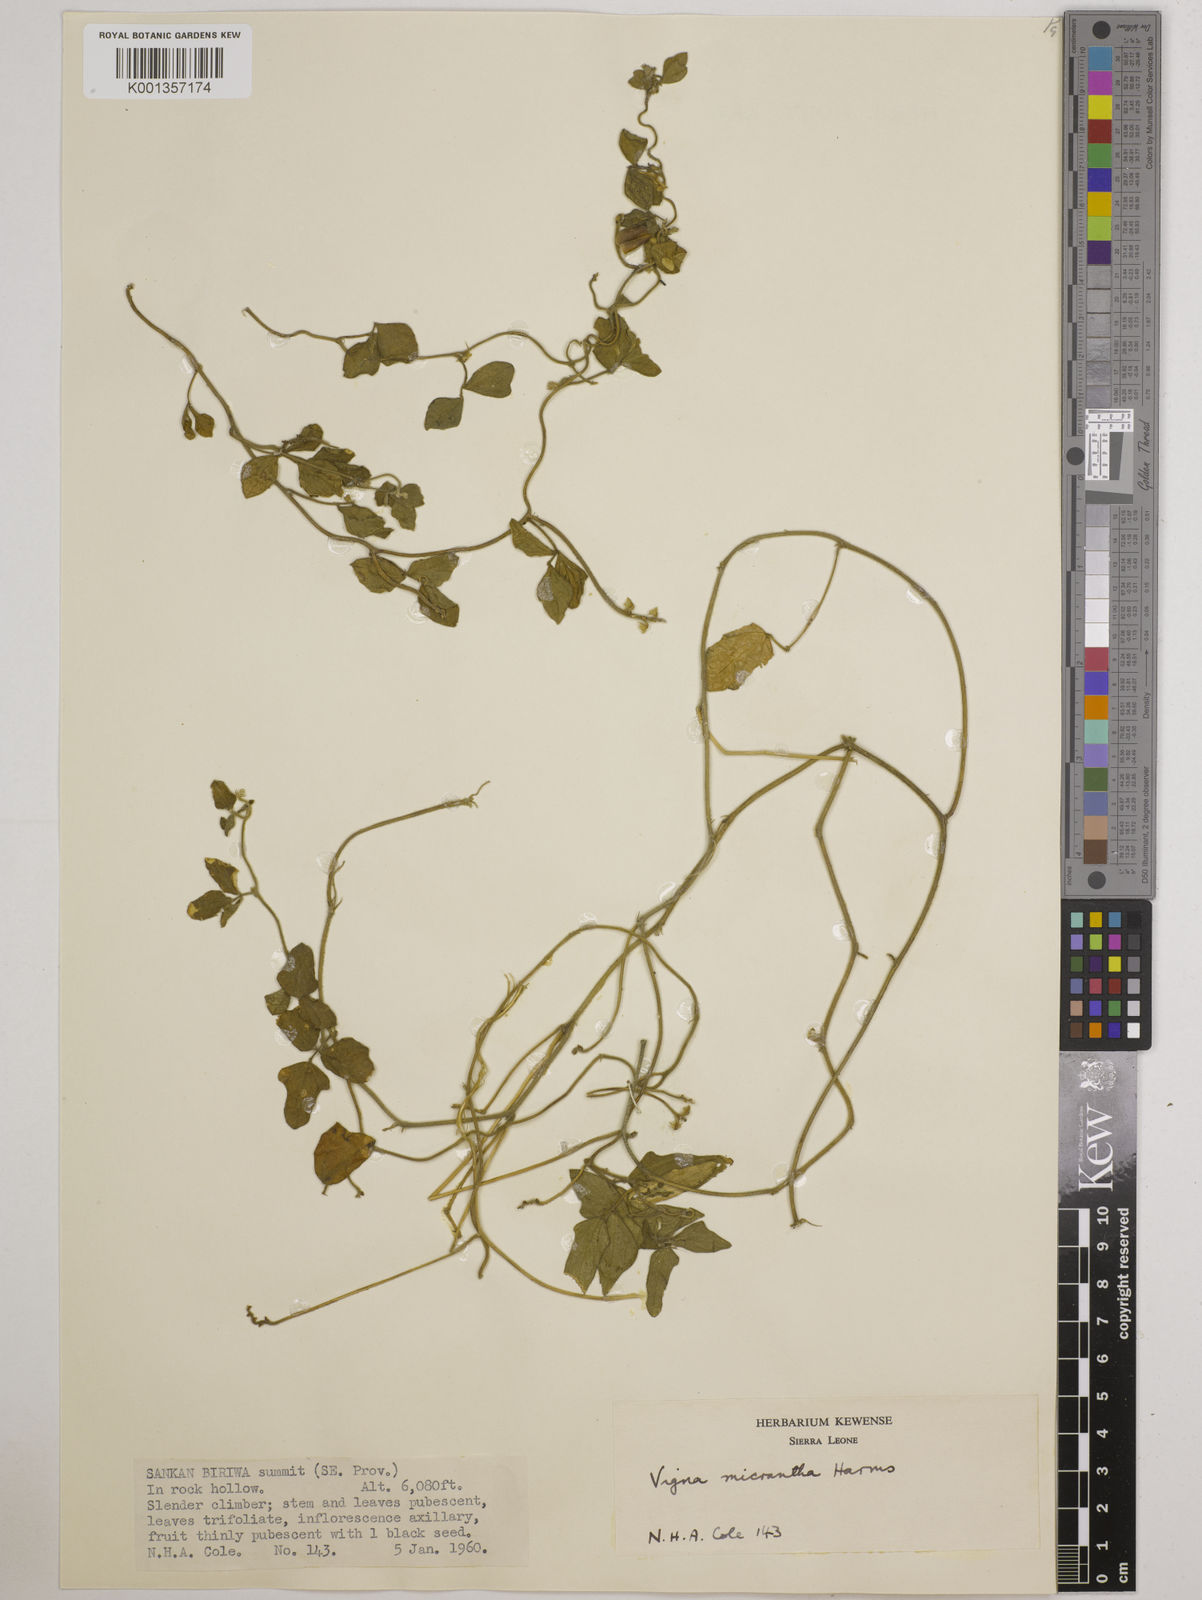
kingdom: Plantae
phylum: Tracheophyta
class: Magnoliopsida
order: Fabales
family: Fabaceae
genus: Vigna
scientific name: Vigna comosa
